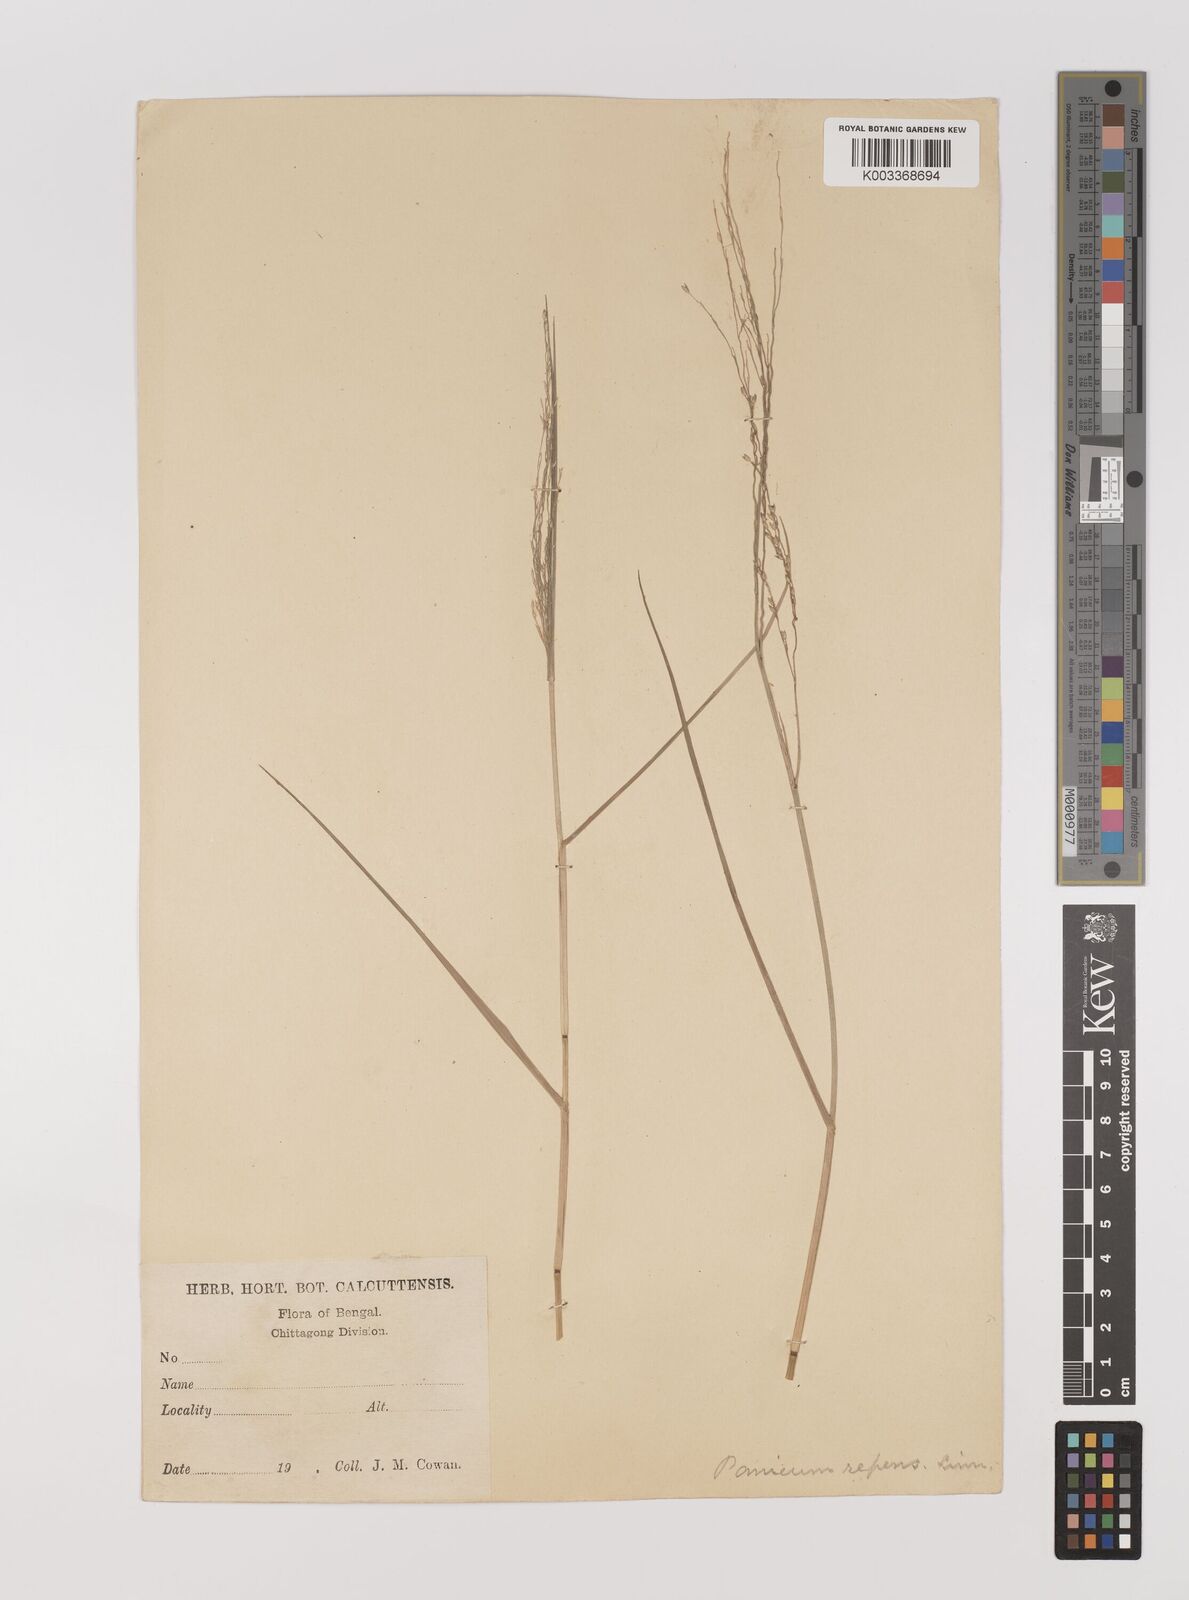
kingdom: Plantae
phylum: Tracheophyta
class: Liliopsida
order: Poales
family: Poaceae
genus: Panicum
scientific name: Panicum repens
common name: Torpedo grass
